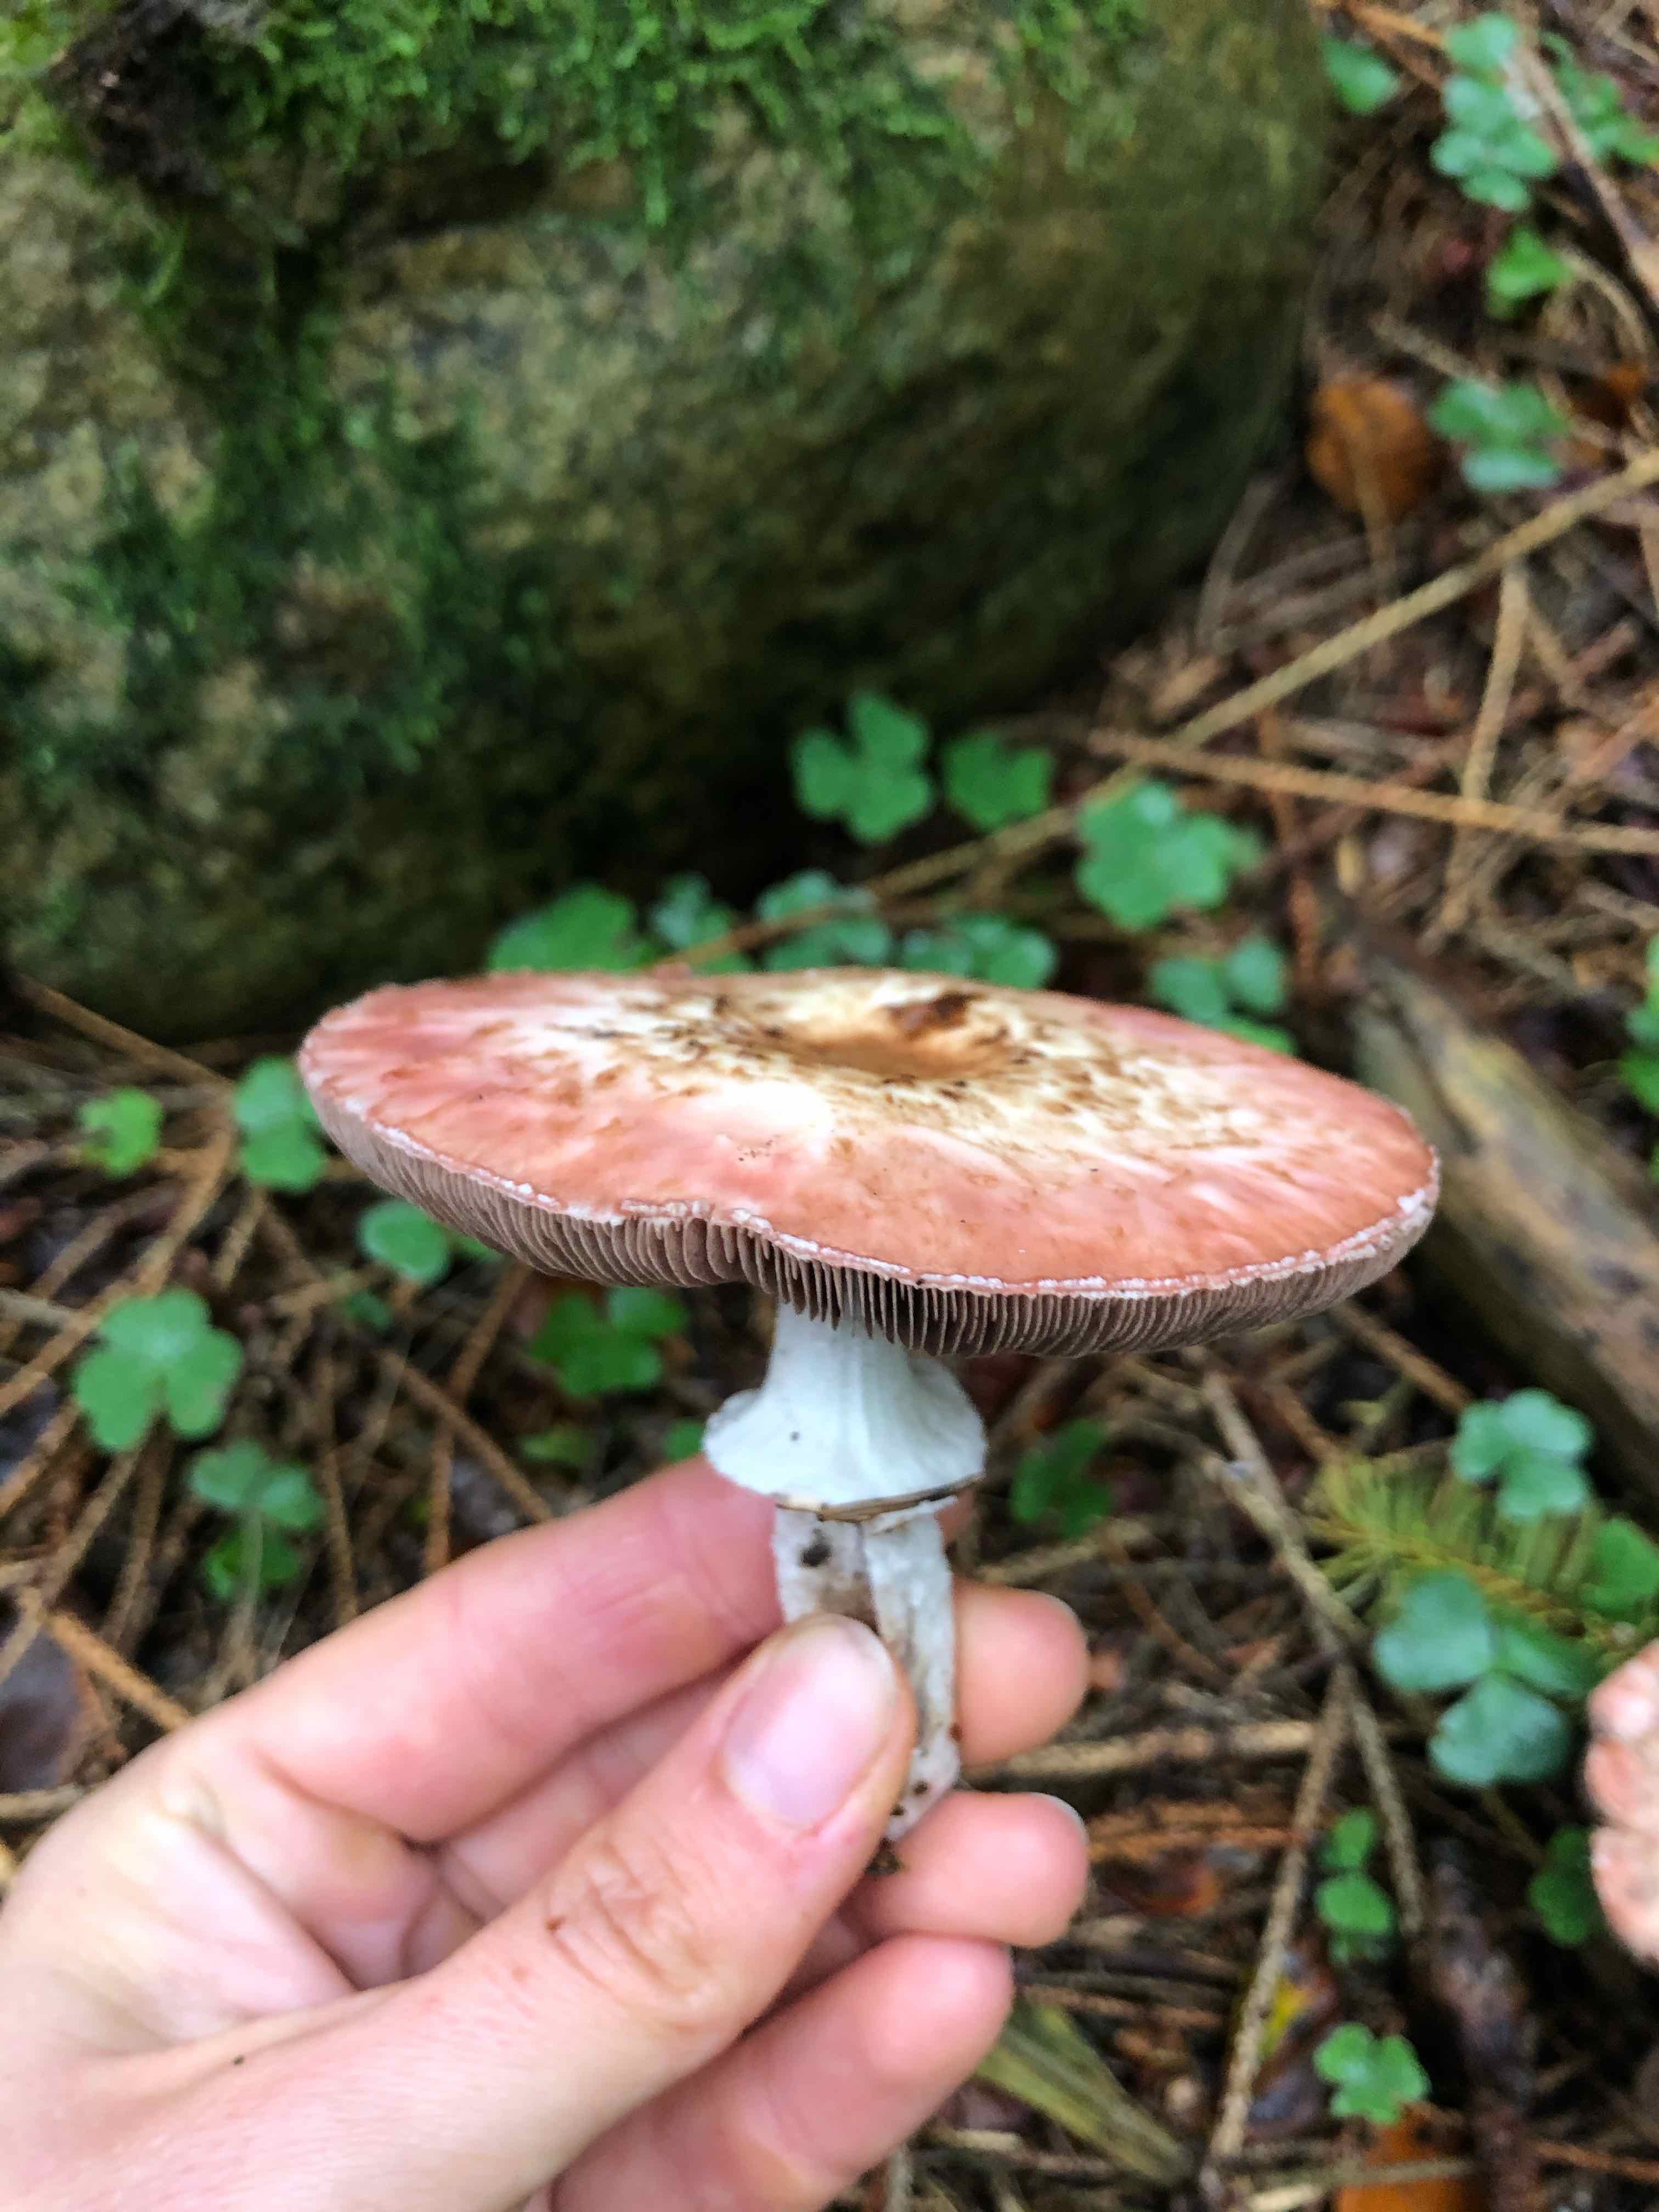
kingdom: Fungi
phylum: Basidiomycota
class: Agaricomycetes
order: Agaricales
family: Agaricaceae
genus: Agaricus
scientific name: Agaricus
